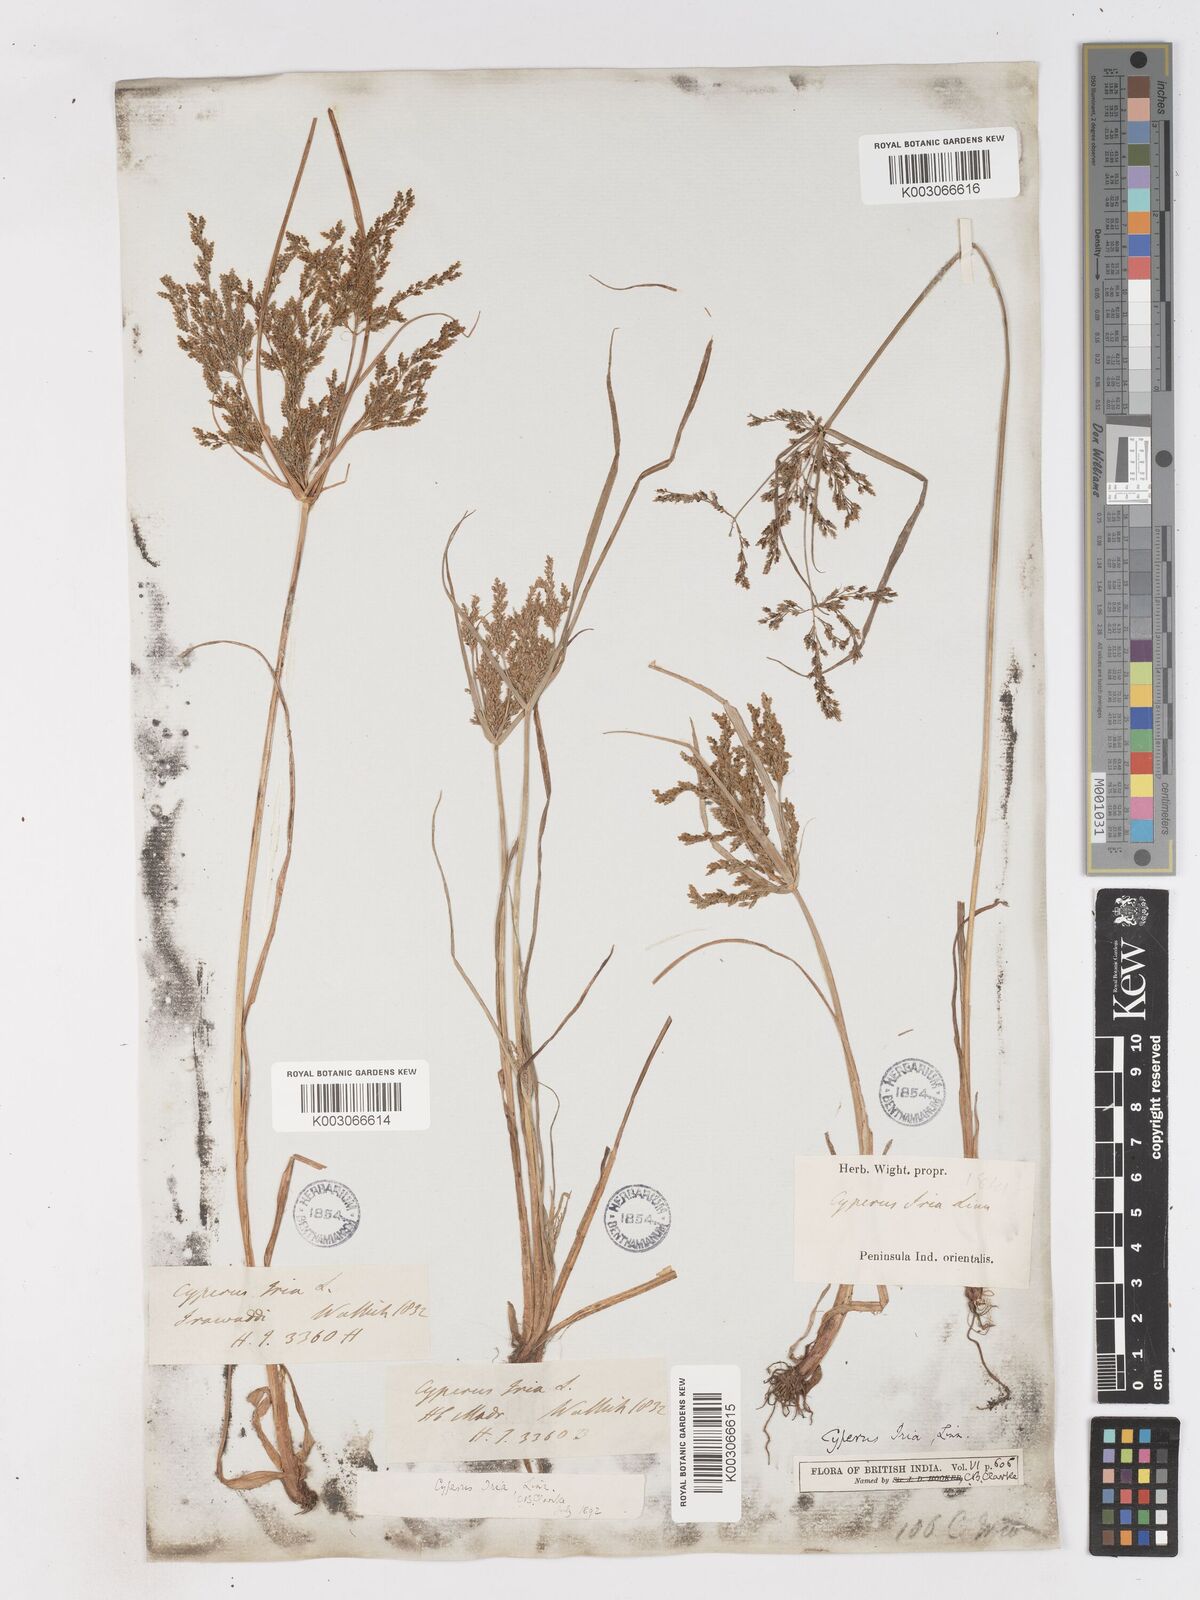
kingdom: Plantae
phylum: Tracheophyta
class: Liliopsida
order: Poales
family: Cyperaceae
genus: Cyperus
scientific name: Cyperus microiria
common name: Asian flatsedge
